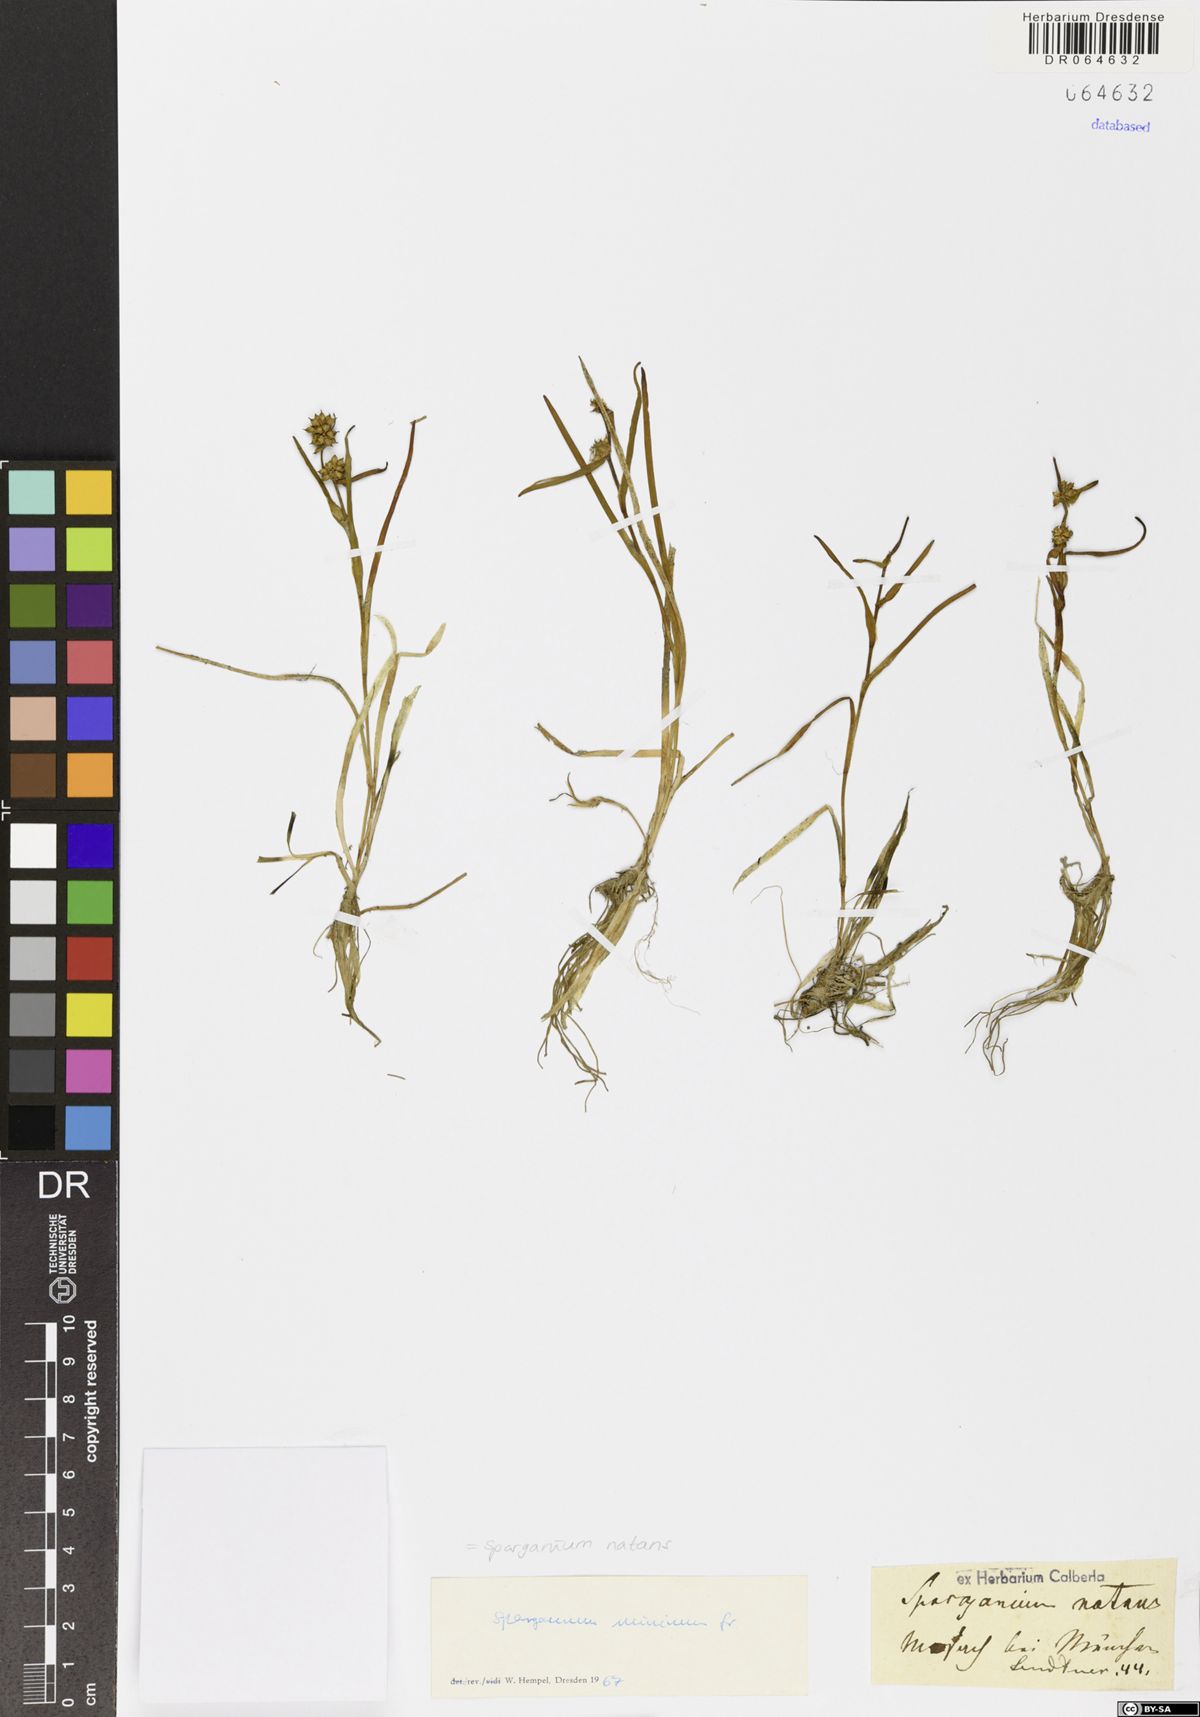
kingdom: Plantae
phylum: Tracheophyta
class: Liliopsida
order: Poales
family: Typhaceae
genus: Sparganium
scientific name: Sparganium natans
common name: Least bur-reed
